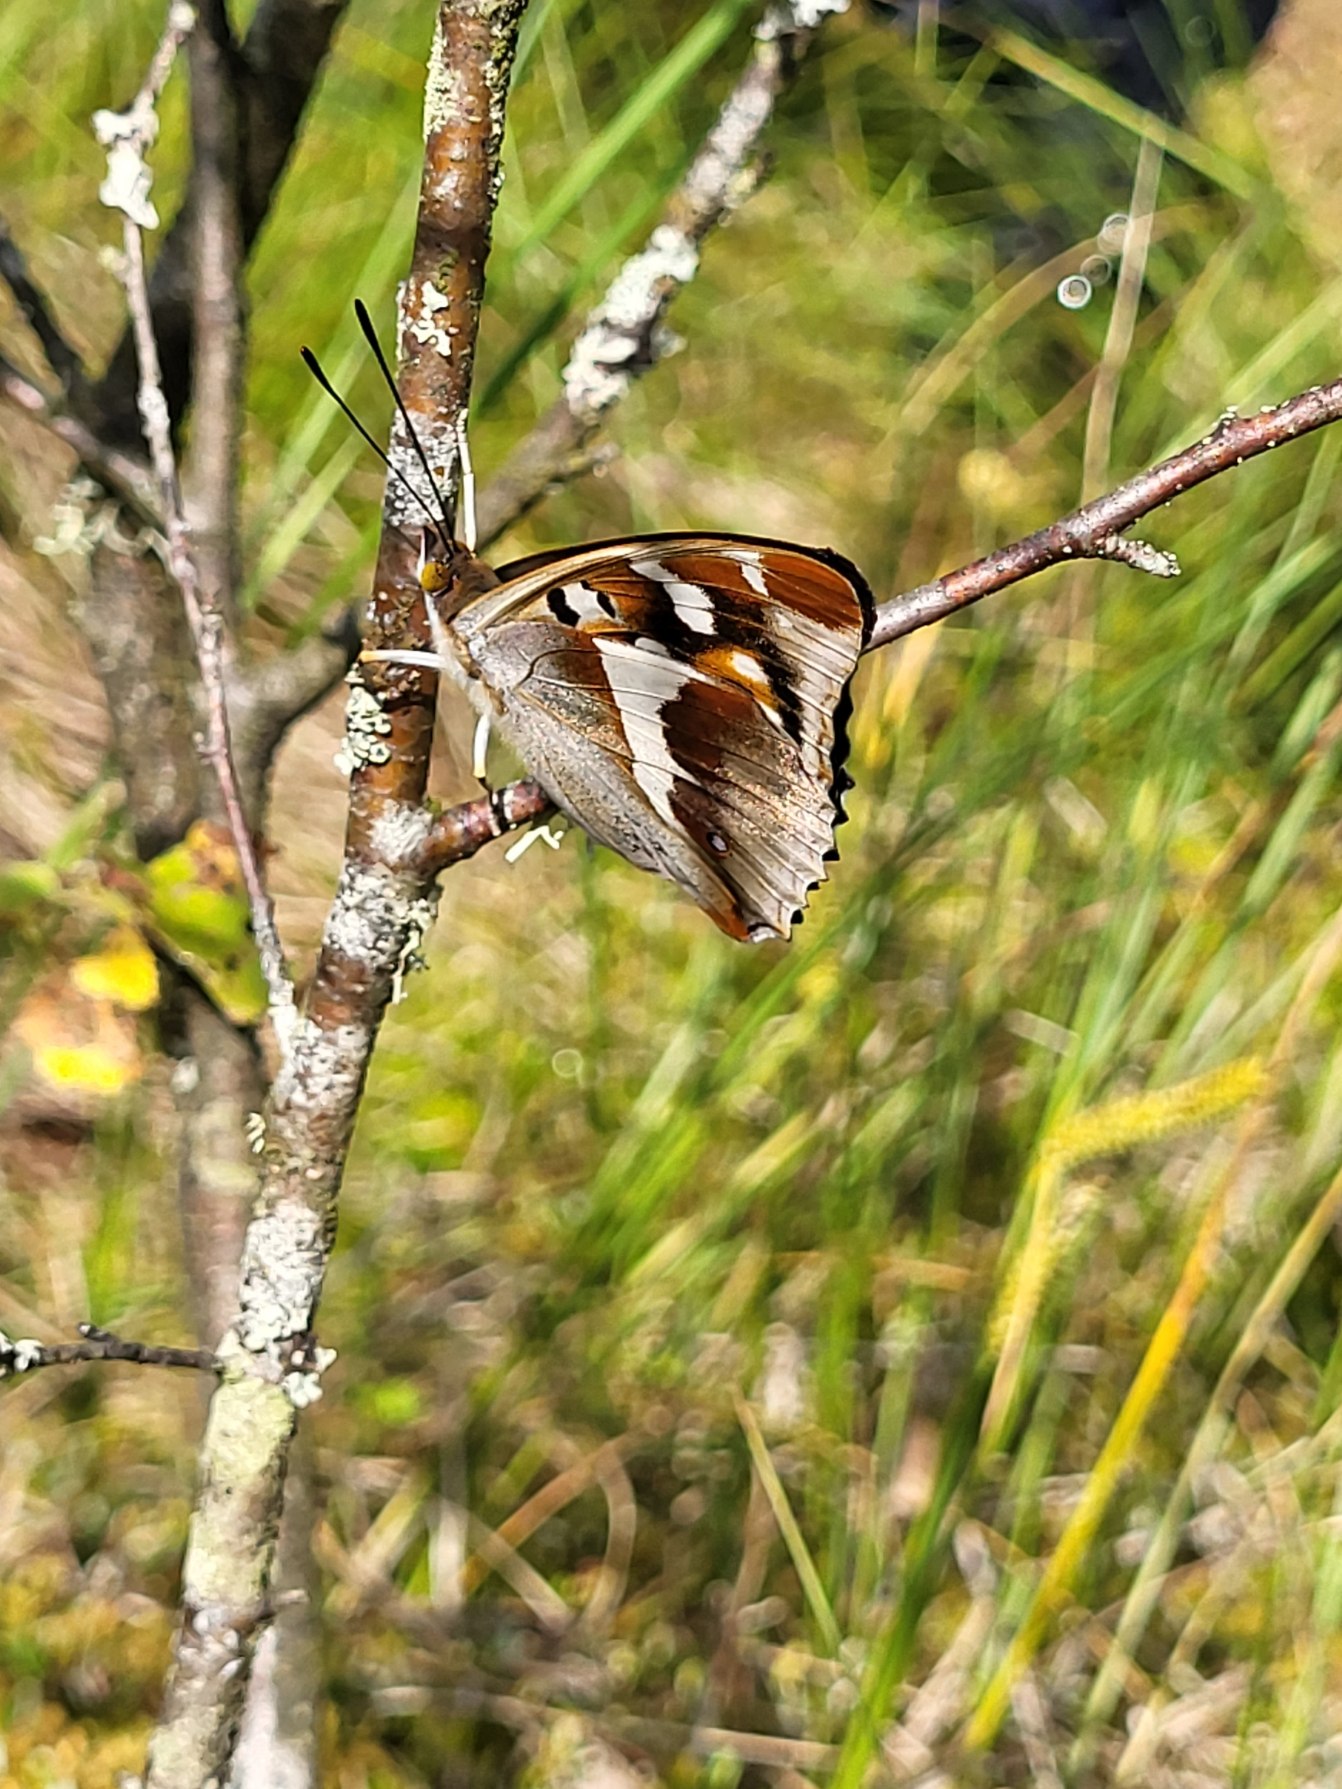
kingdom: Animalia
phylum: Arthropoda
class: Insecta
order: Lepidoptera
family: Nymphalidae
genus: Apatura
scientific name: Apatura iris
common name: Iris
